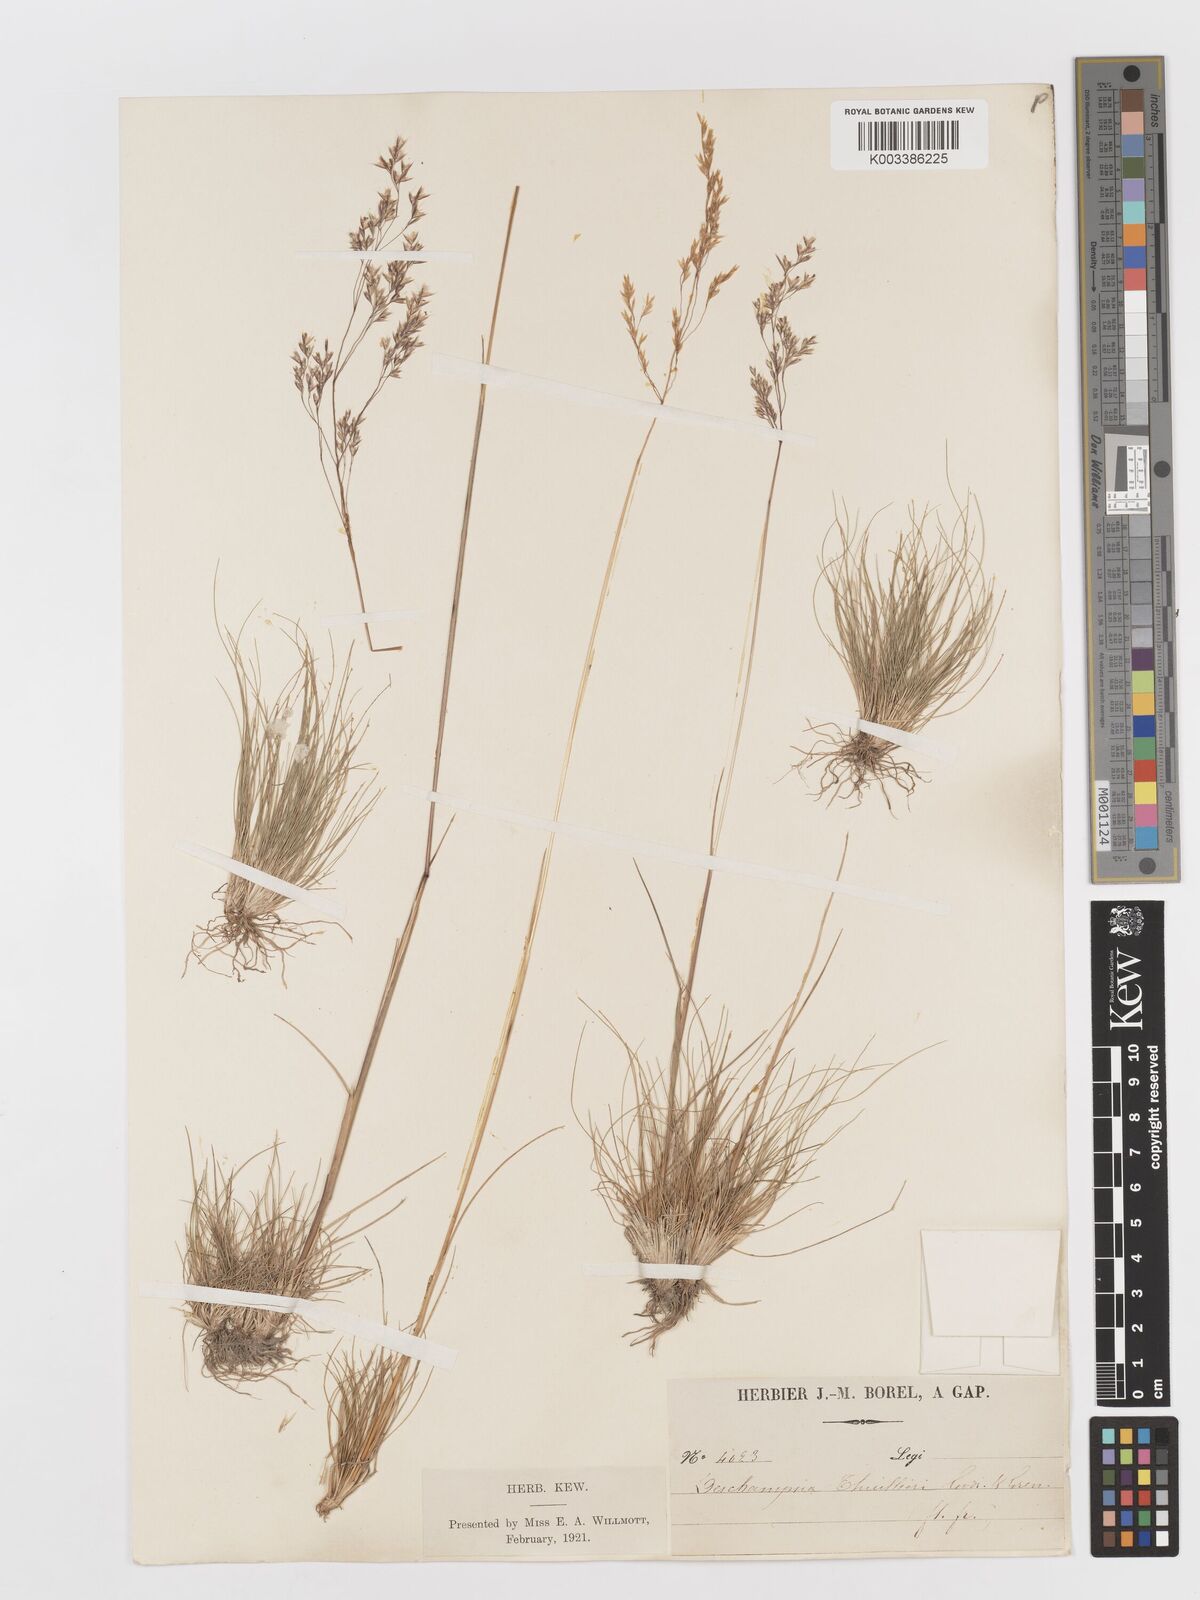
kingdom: Plantae
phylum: Tracheophyta
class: Liliopsida
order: Poales
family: Poaceae
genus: Deschampsia
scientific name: Deschampsia
